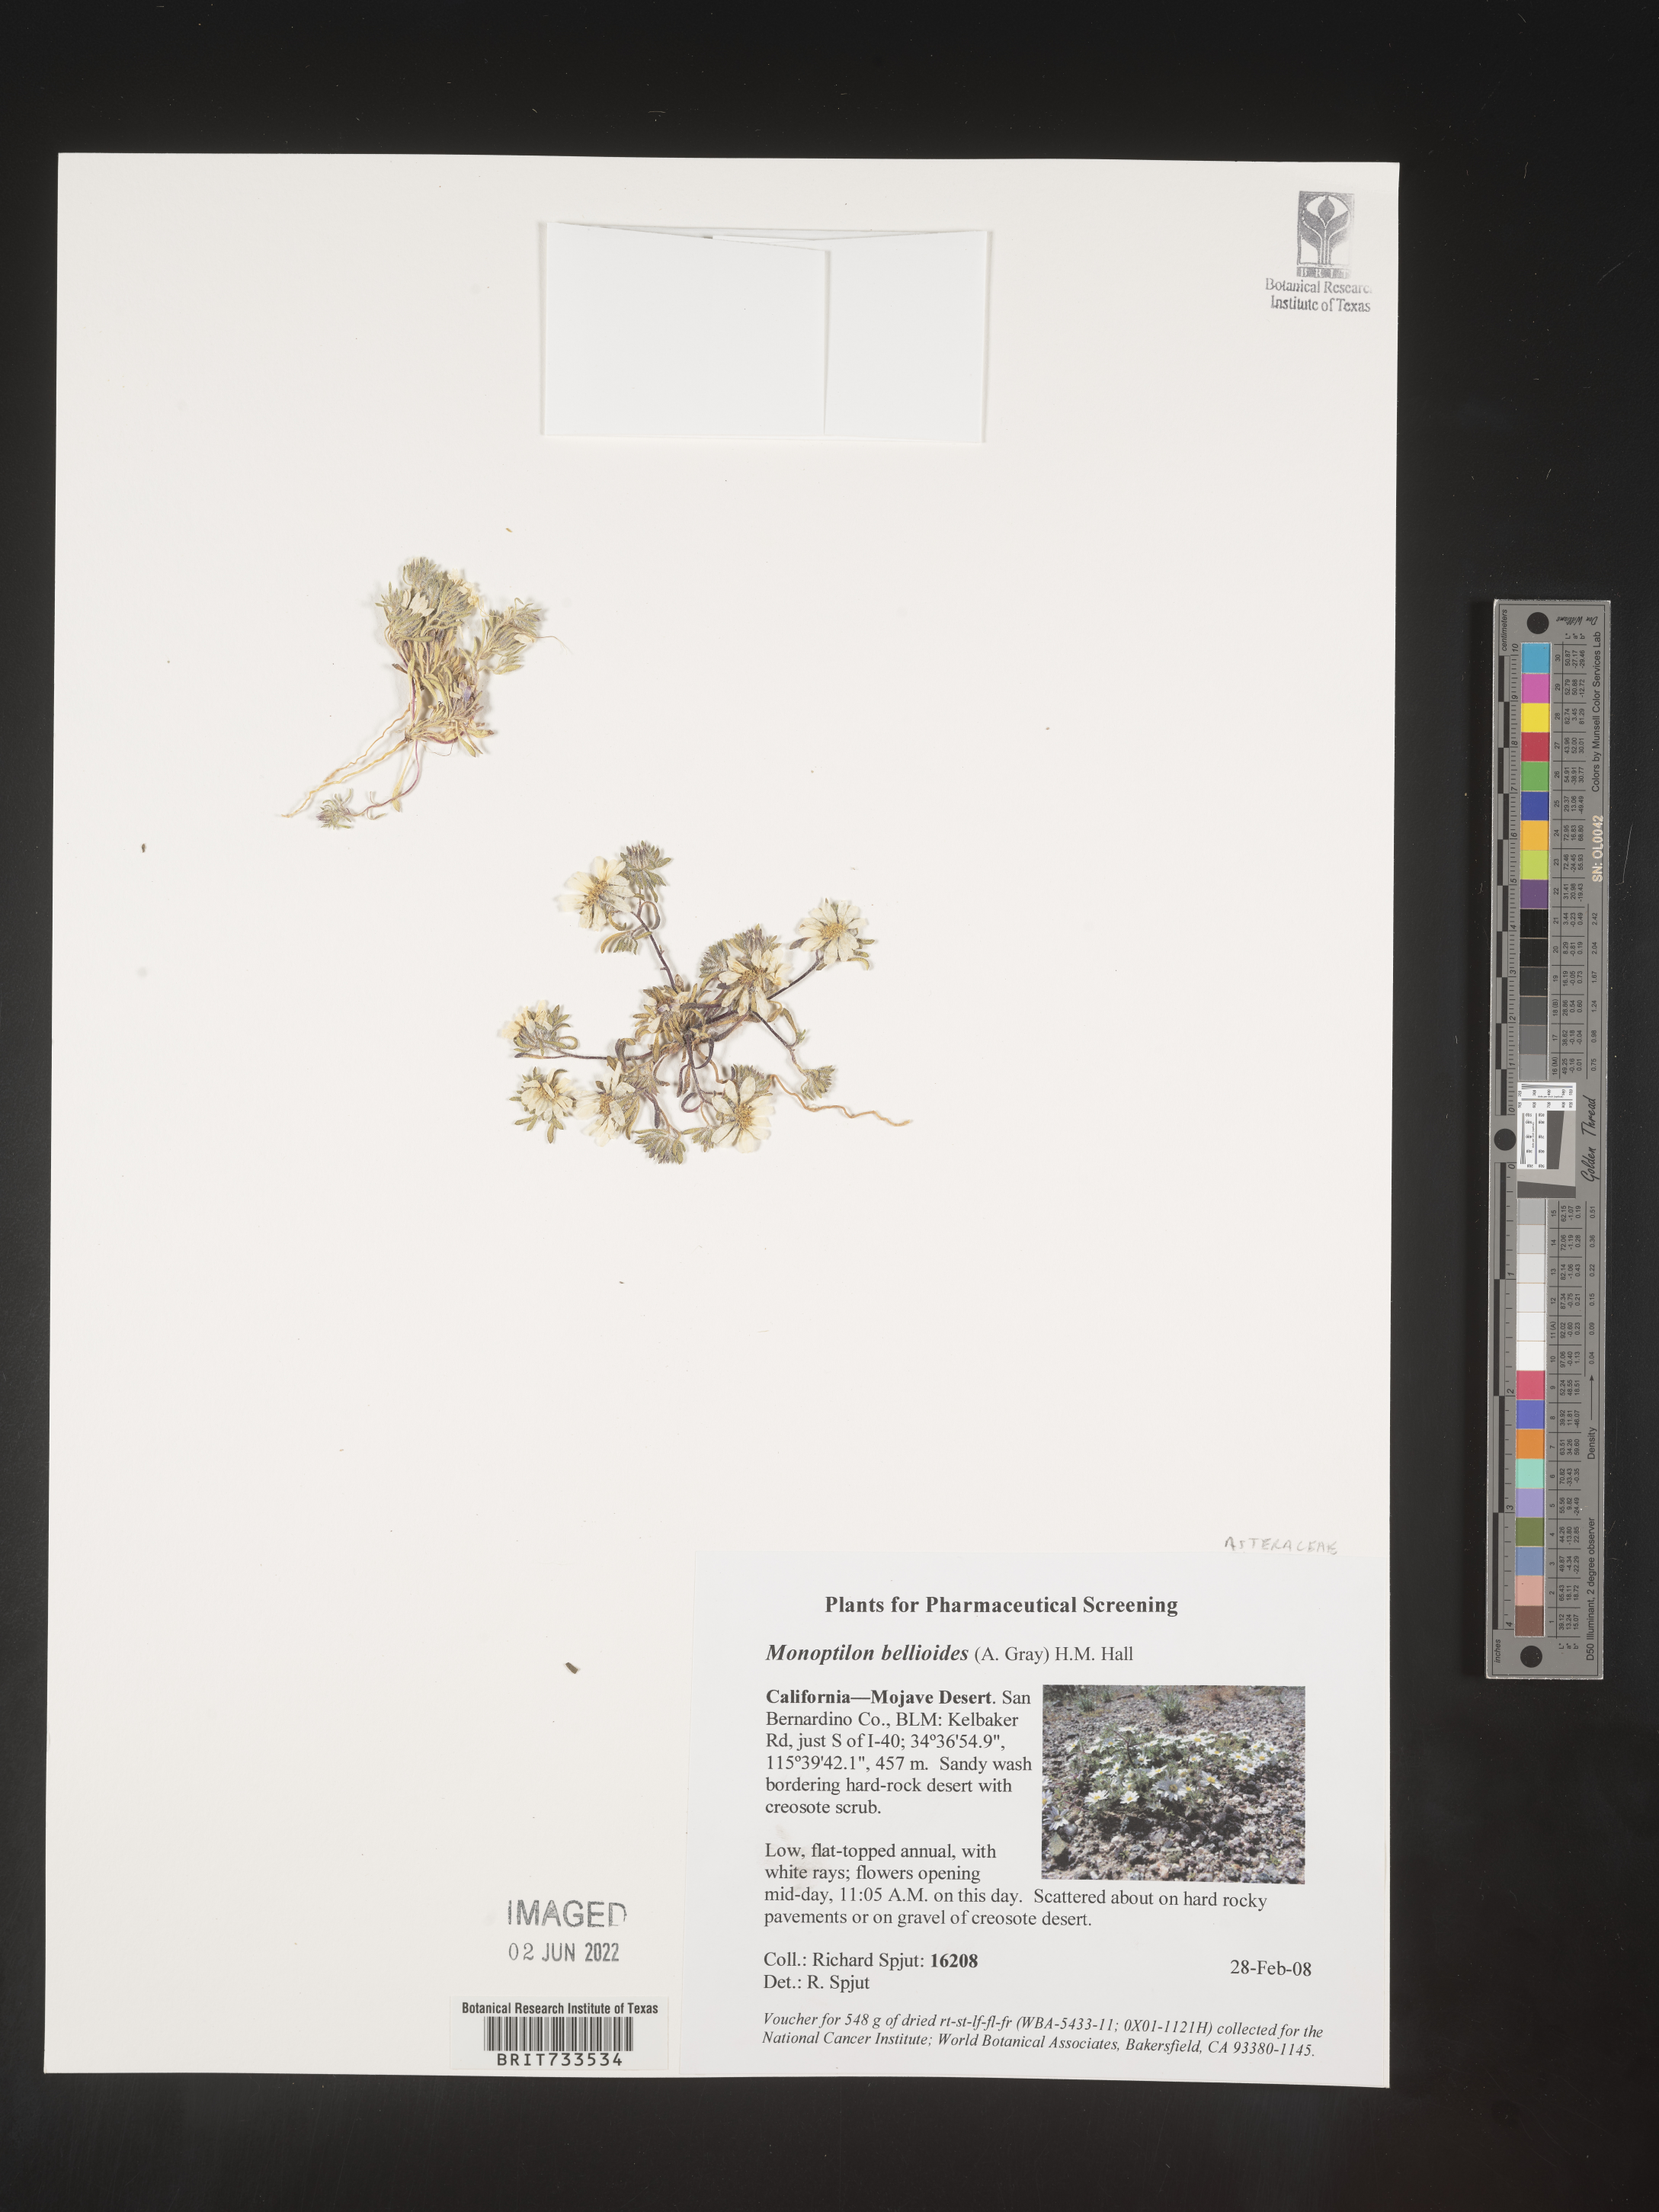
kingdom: Plantae
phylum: Tracheophyta
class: Magnoliopsida
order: Asterales
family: Asteraceae
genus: Monoptilon
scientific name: Monoptilon
